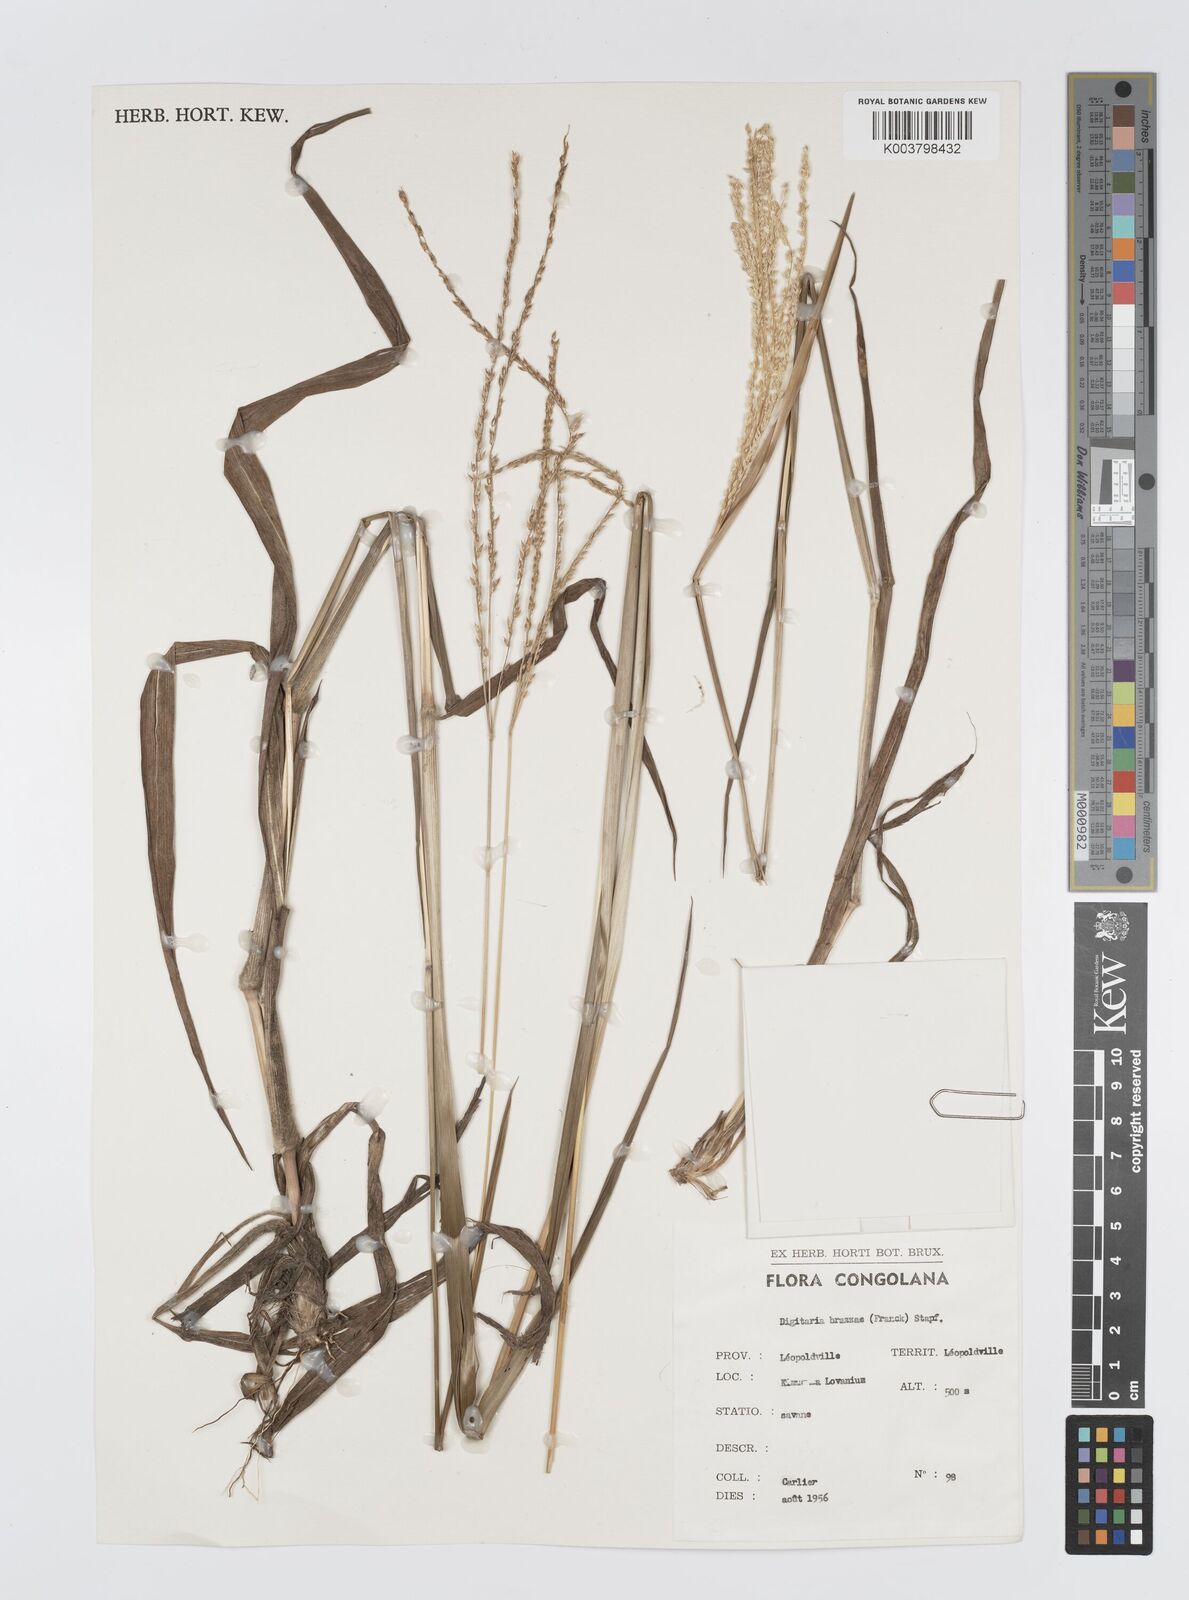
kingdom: Plantae
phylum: Tracheophyta
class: Liliopsida
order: Poales
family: Poaceae
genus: Digitaria
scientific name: Digitaria brazzae
